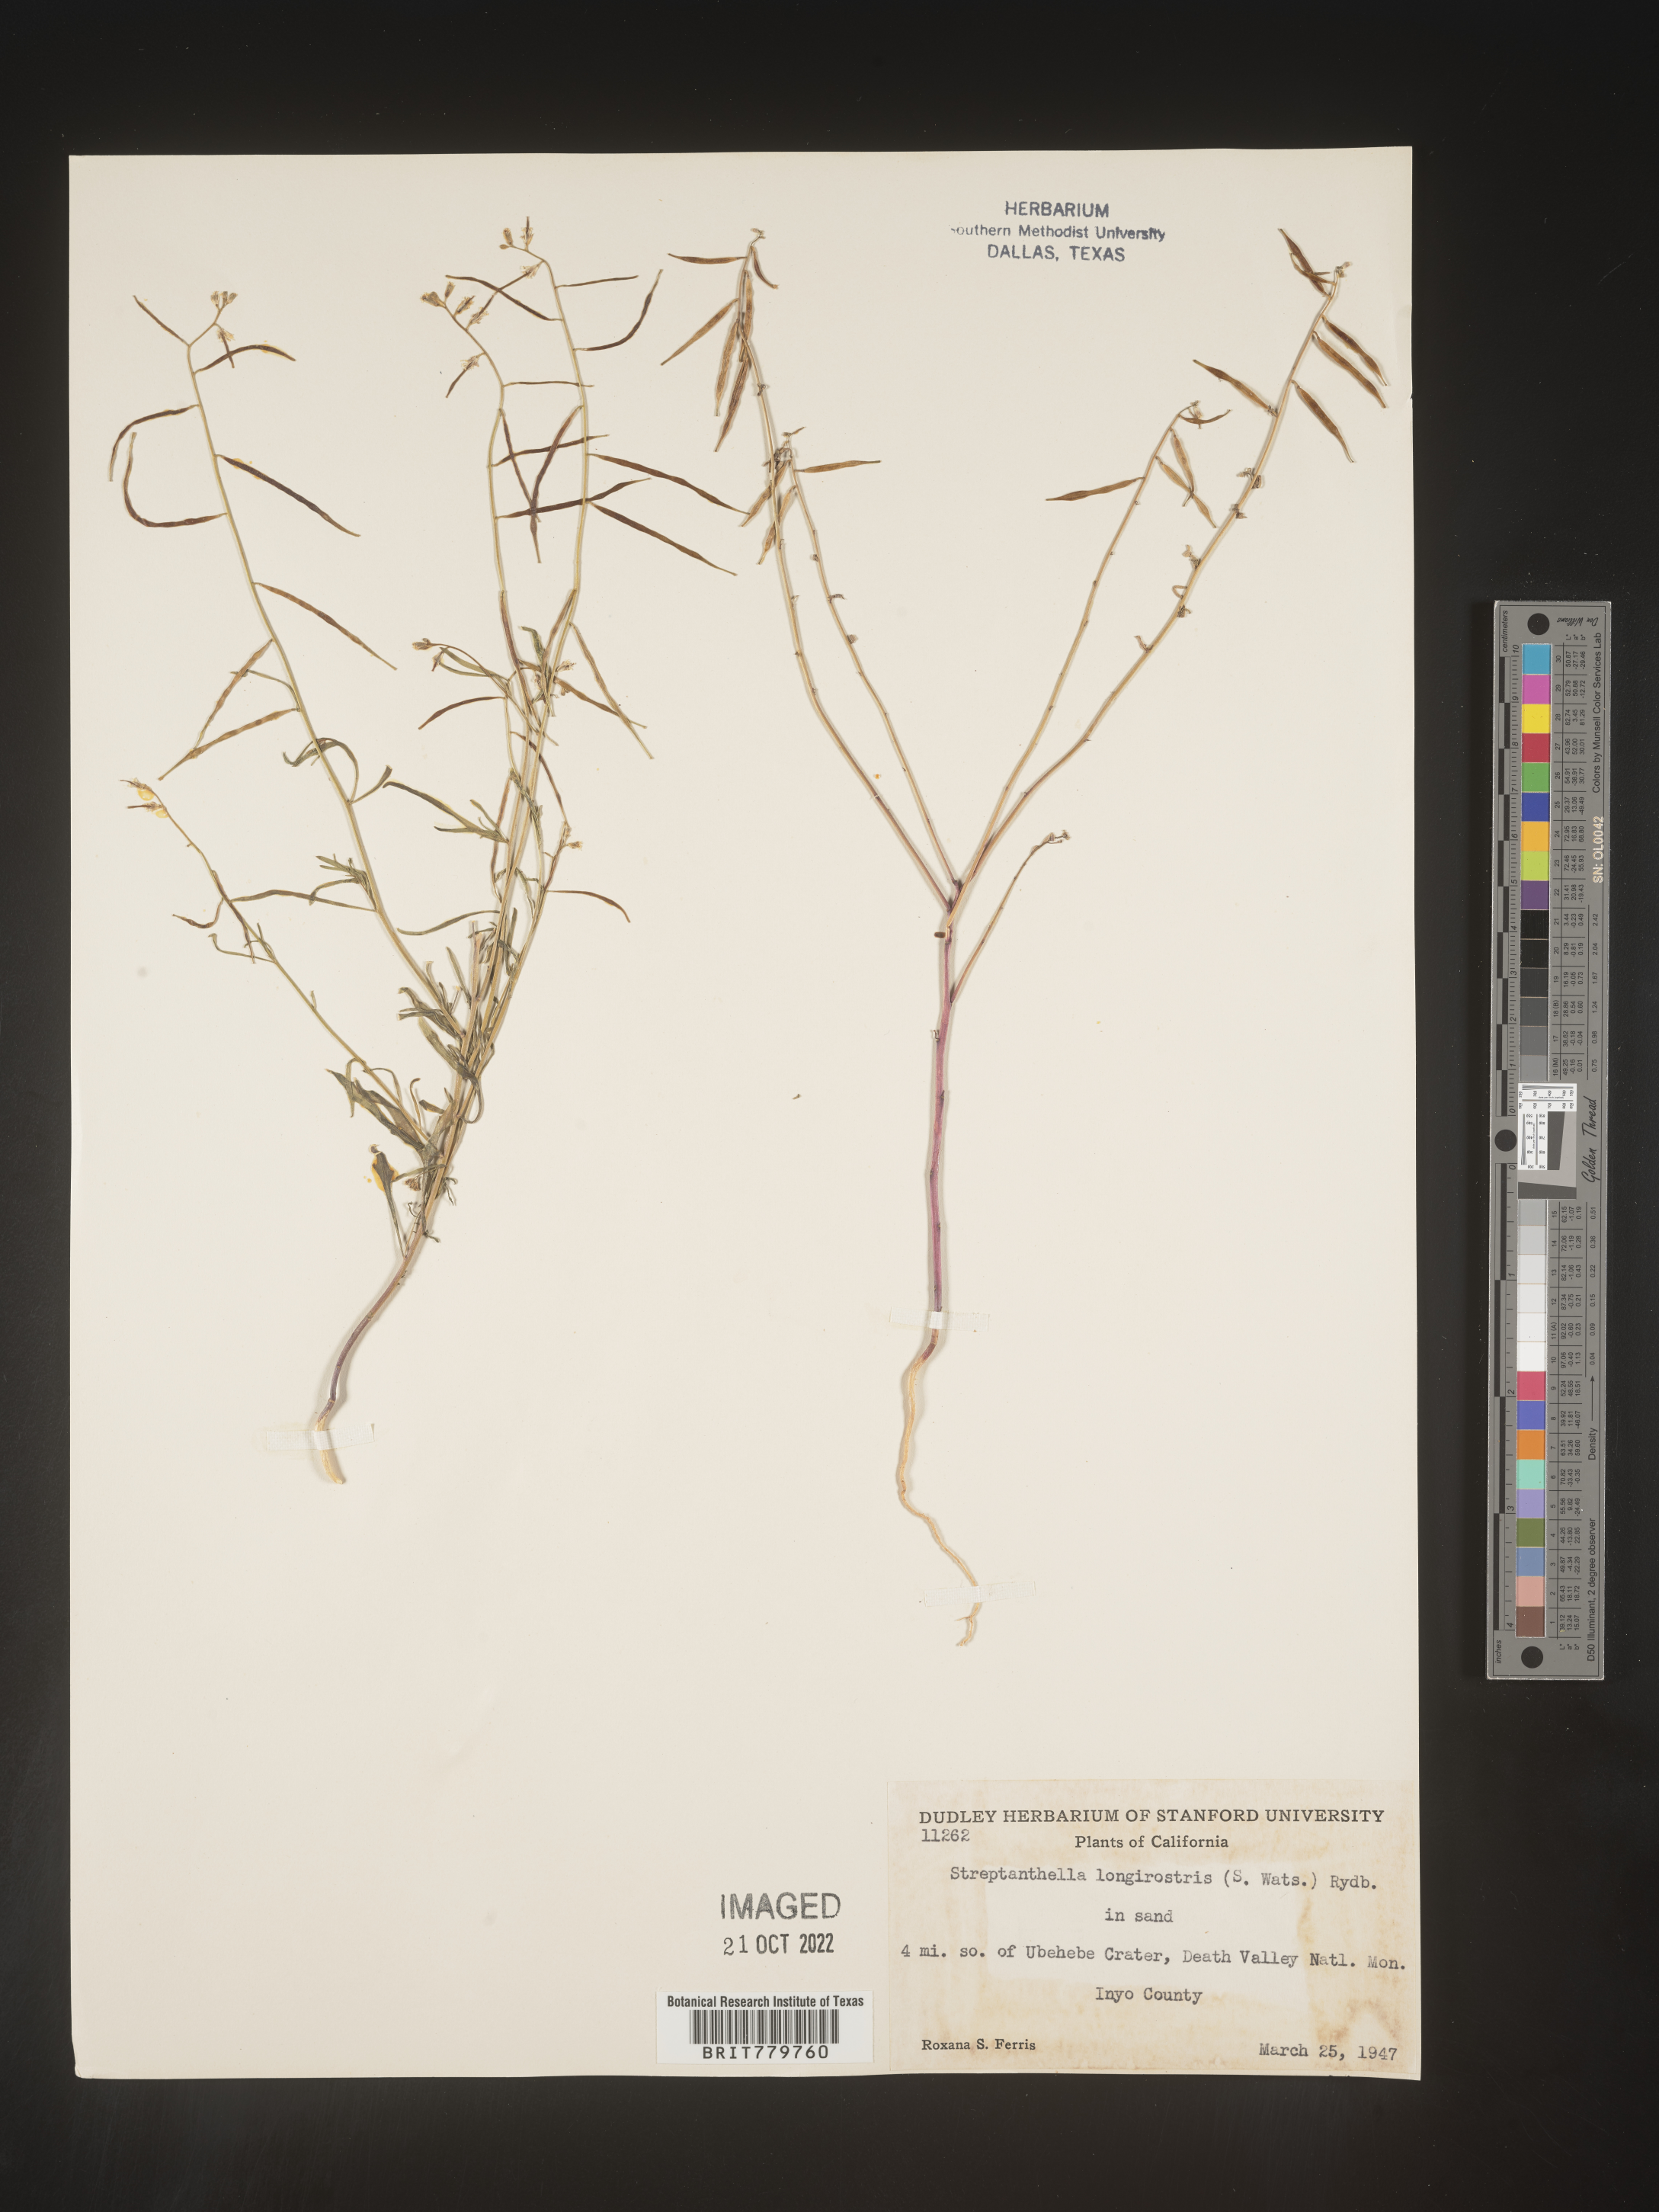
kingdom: Plantae
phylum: Tracheophyta
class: Magnoliopsida
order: Brassicales
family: Brassicaceae
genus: Streptanthus
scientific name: Streptanthus
